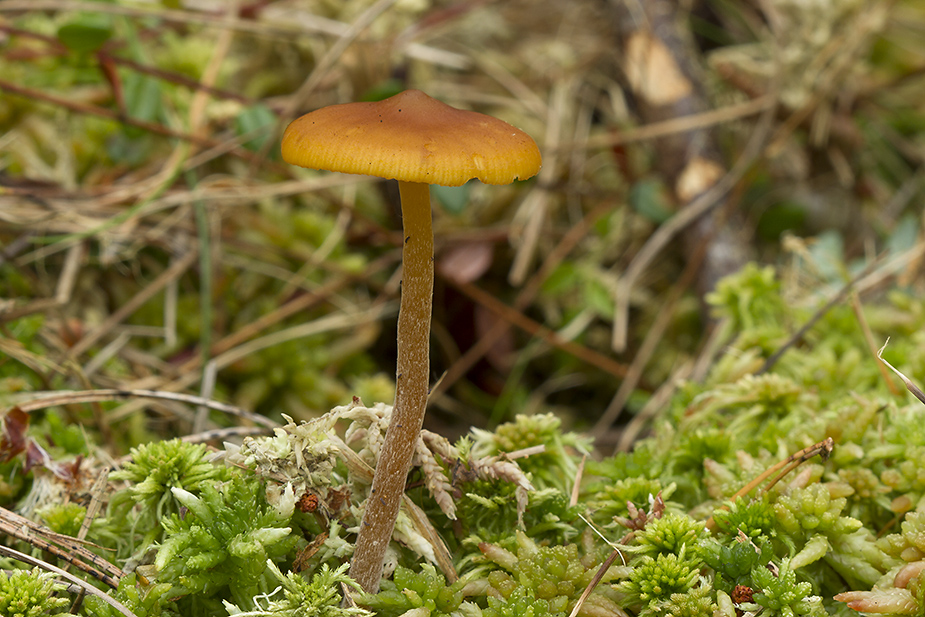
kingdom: Fungi
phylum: Basidiomycota
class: Agaricomycetes
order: Agaricales
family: Hymenogastraceae
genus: Galerina
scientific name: Galerina hybrida
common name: hængesæk-hjelmhat
